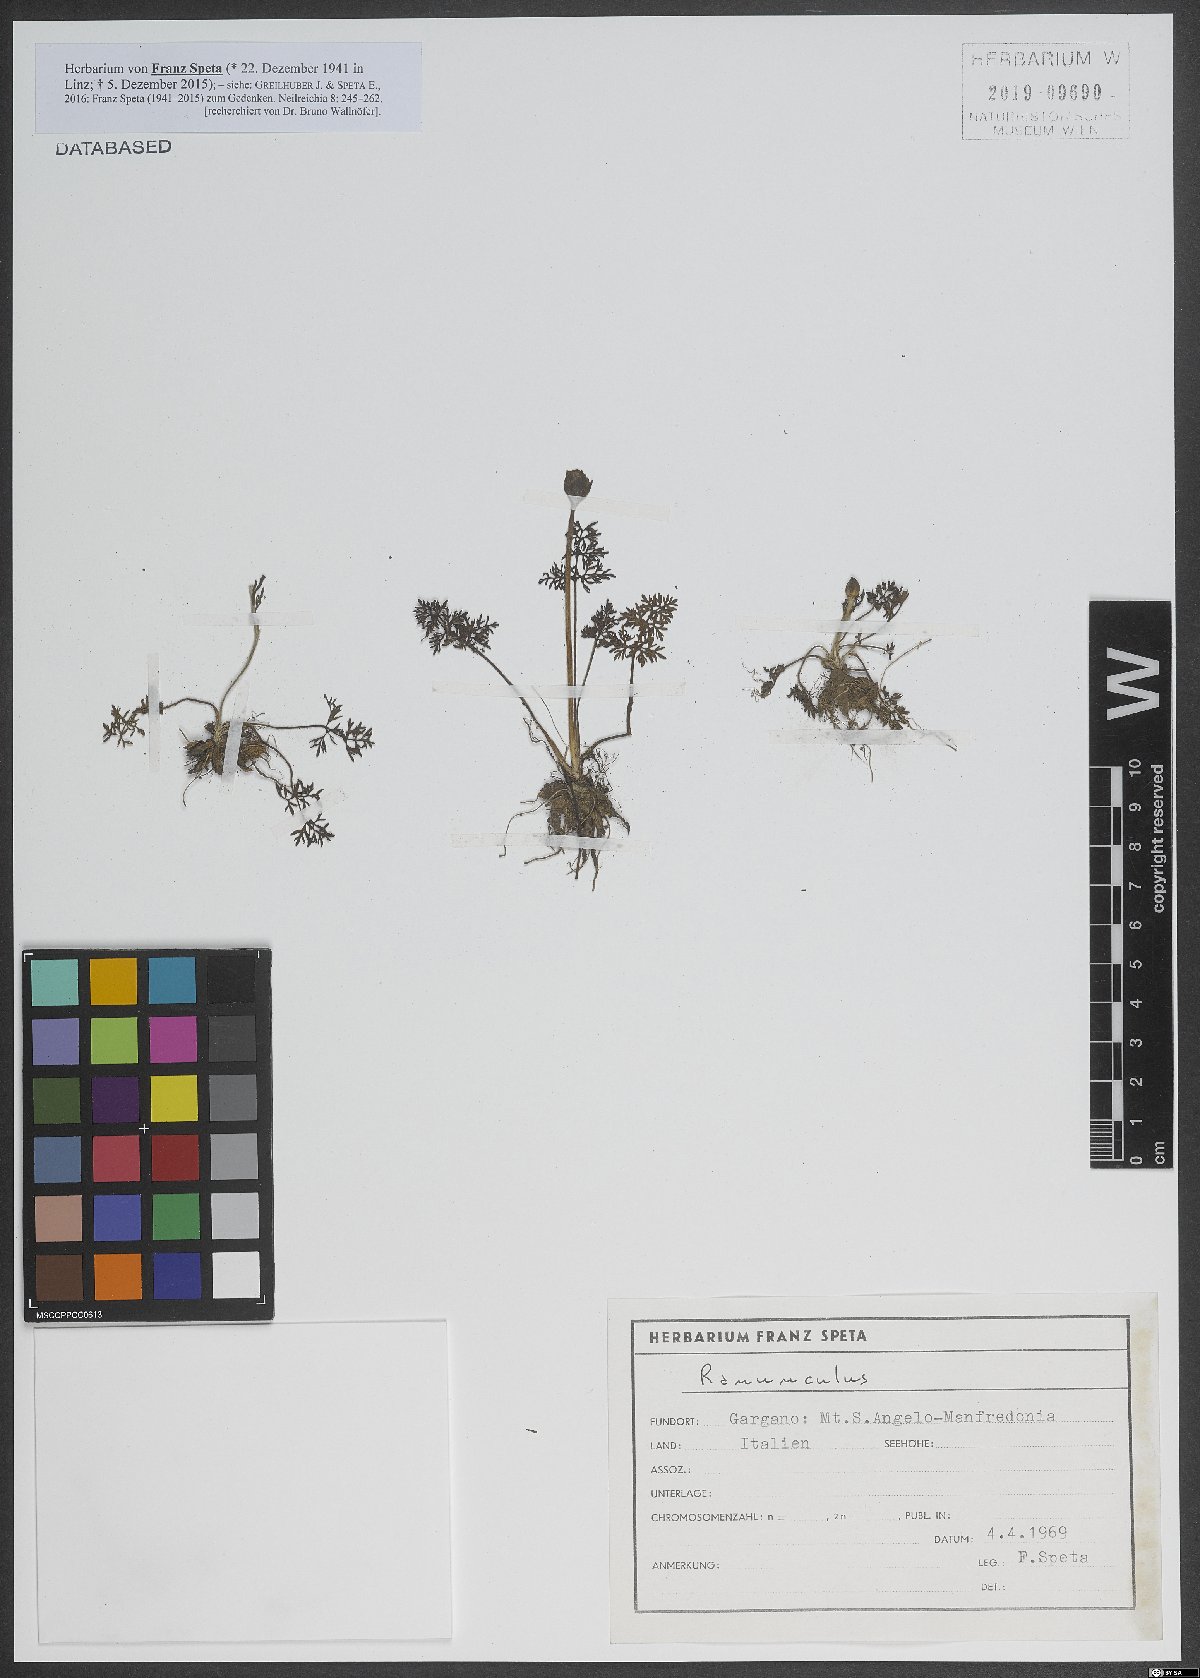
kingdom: Plantae
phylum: Tracheophyta
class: Magnoliopsida
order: Ranunculales
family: Ranunculaceae
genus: Ranunculus
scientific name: Ranunculus
